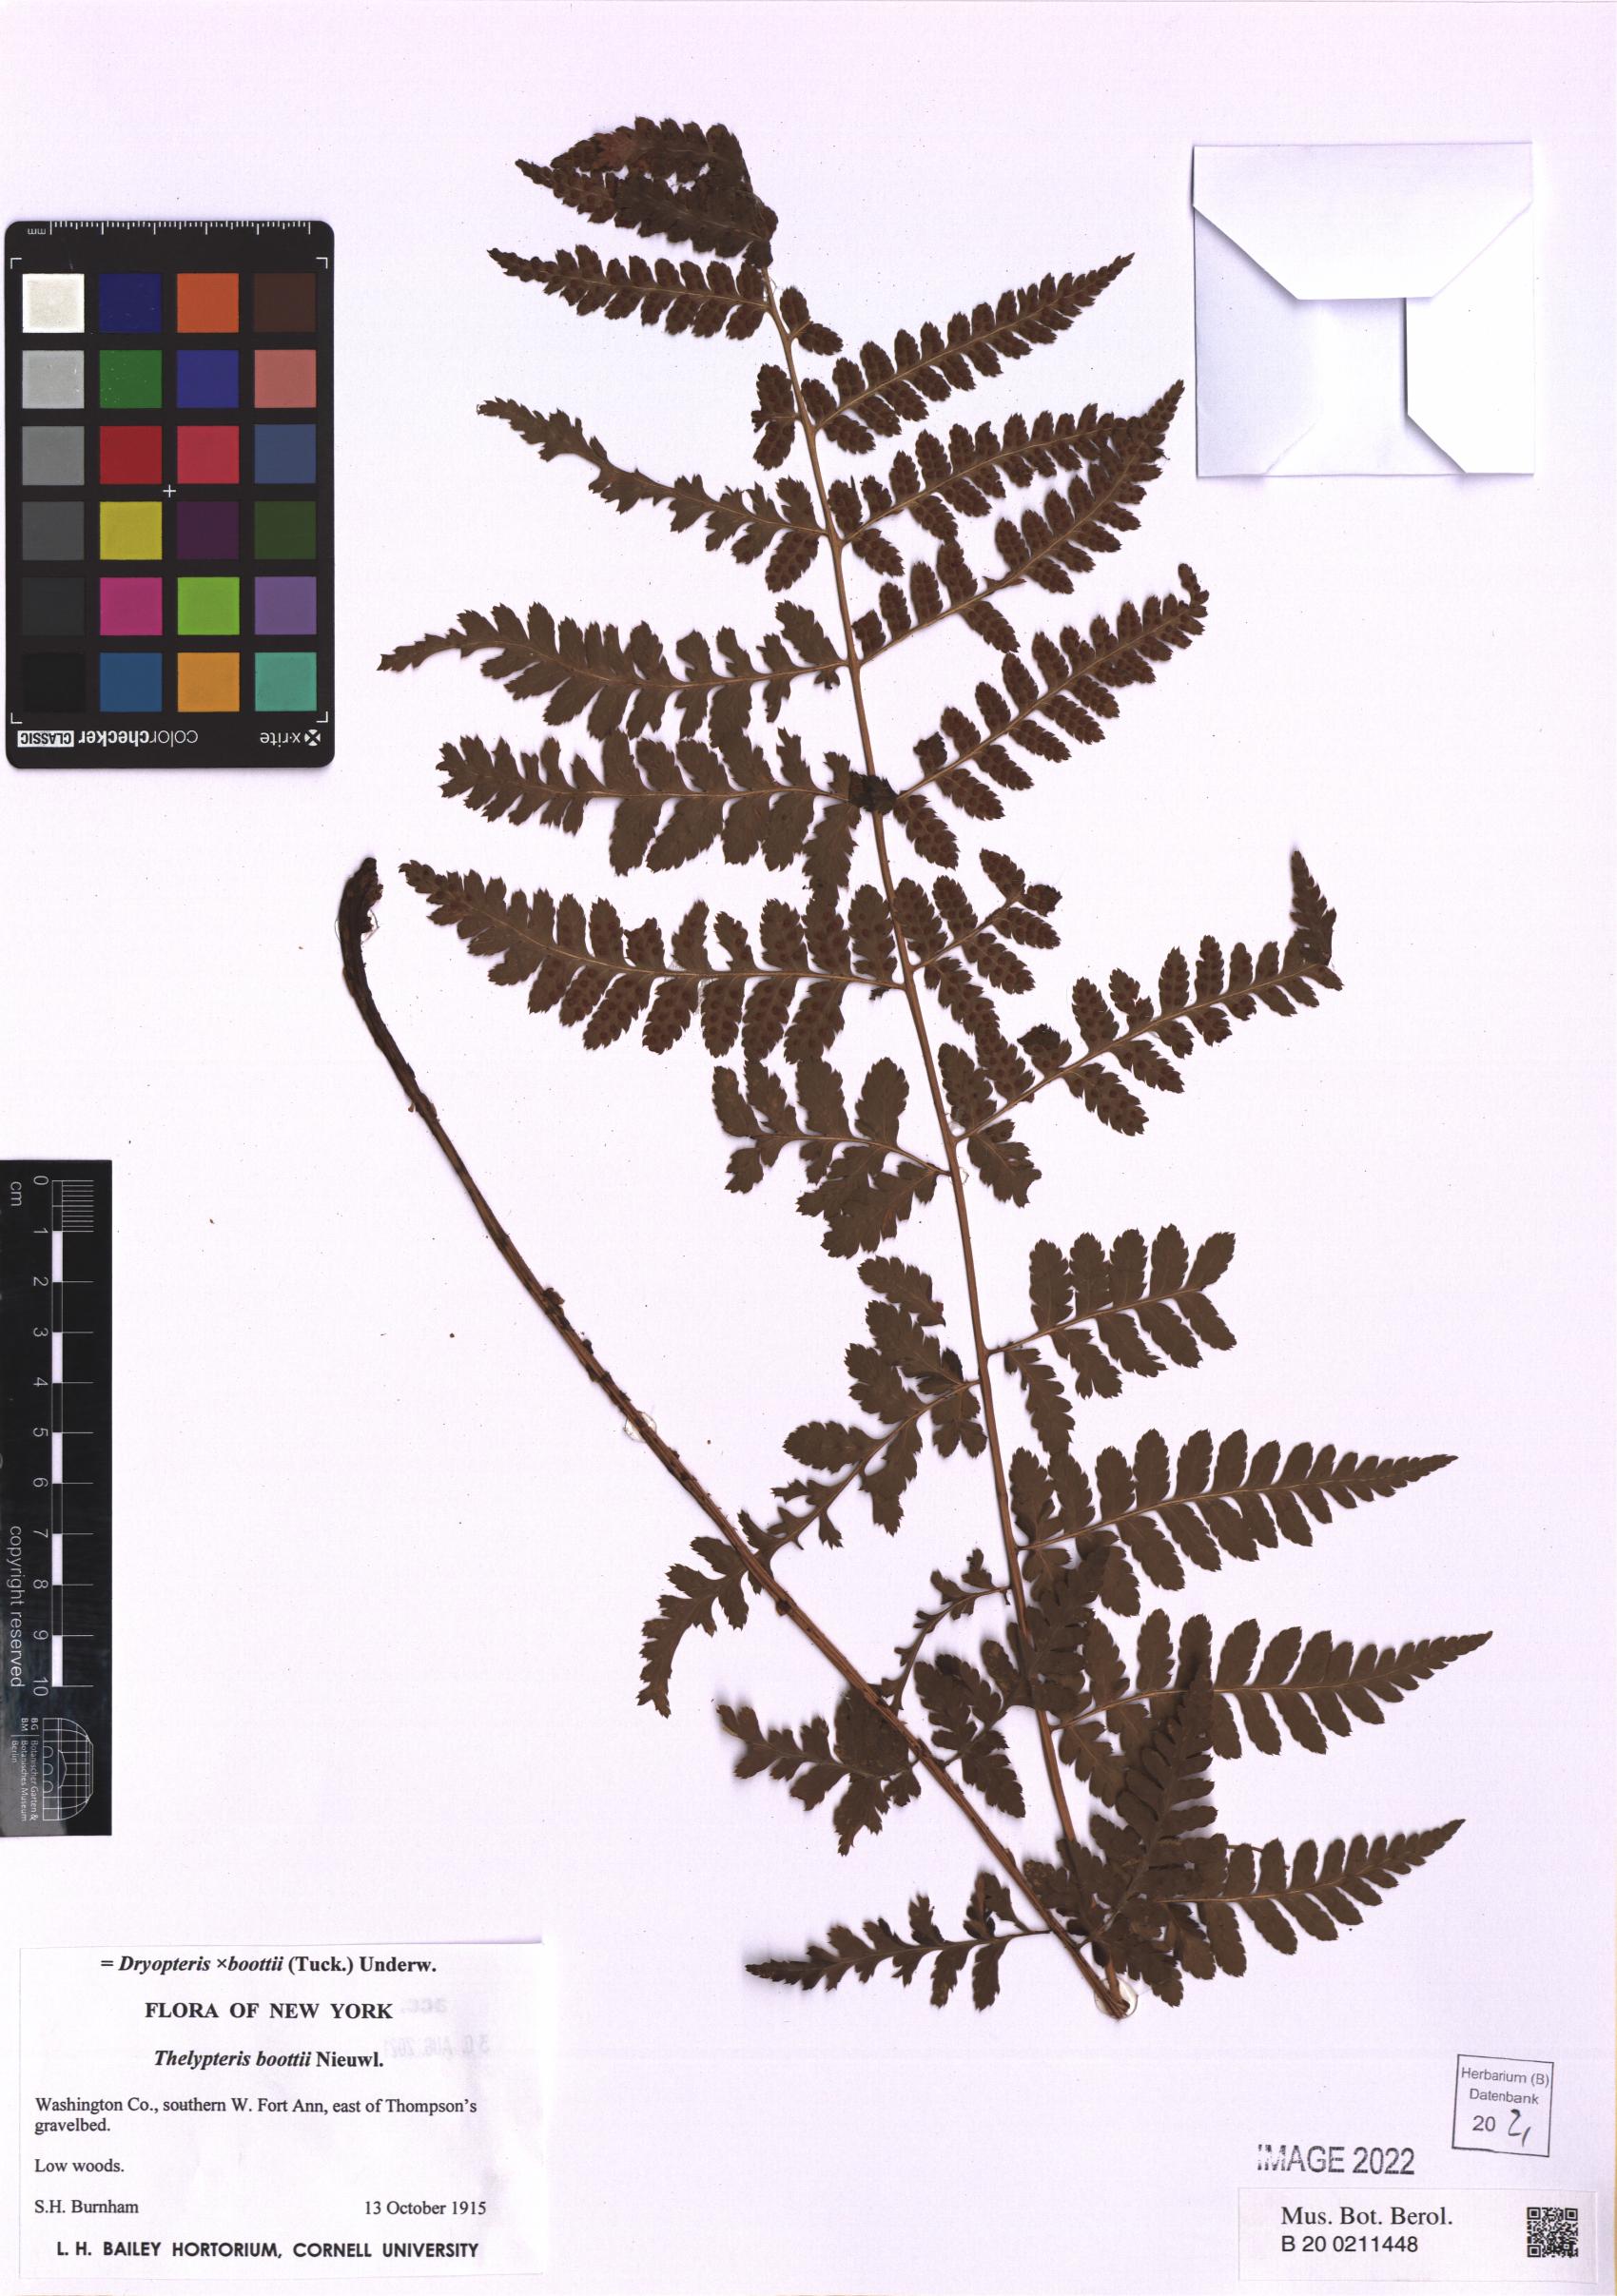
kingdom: Plantae
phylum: Tracheophyta
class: Polypodiopsida
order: Polypodiales
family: Dryopteridaceae
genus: Dryopteris
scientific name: Dryopteris boottii
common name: Boott's fern
